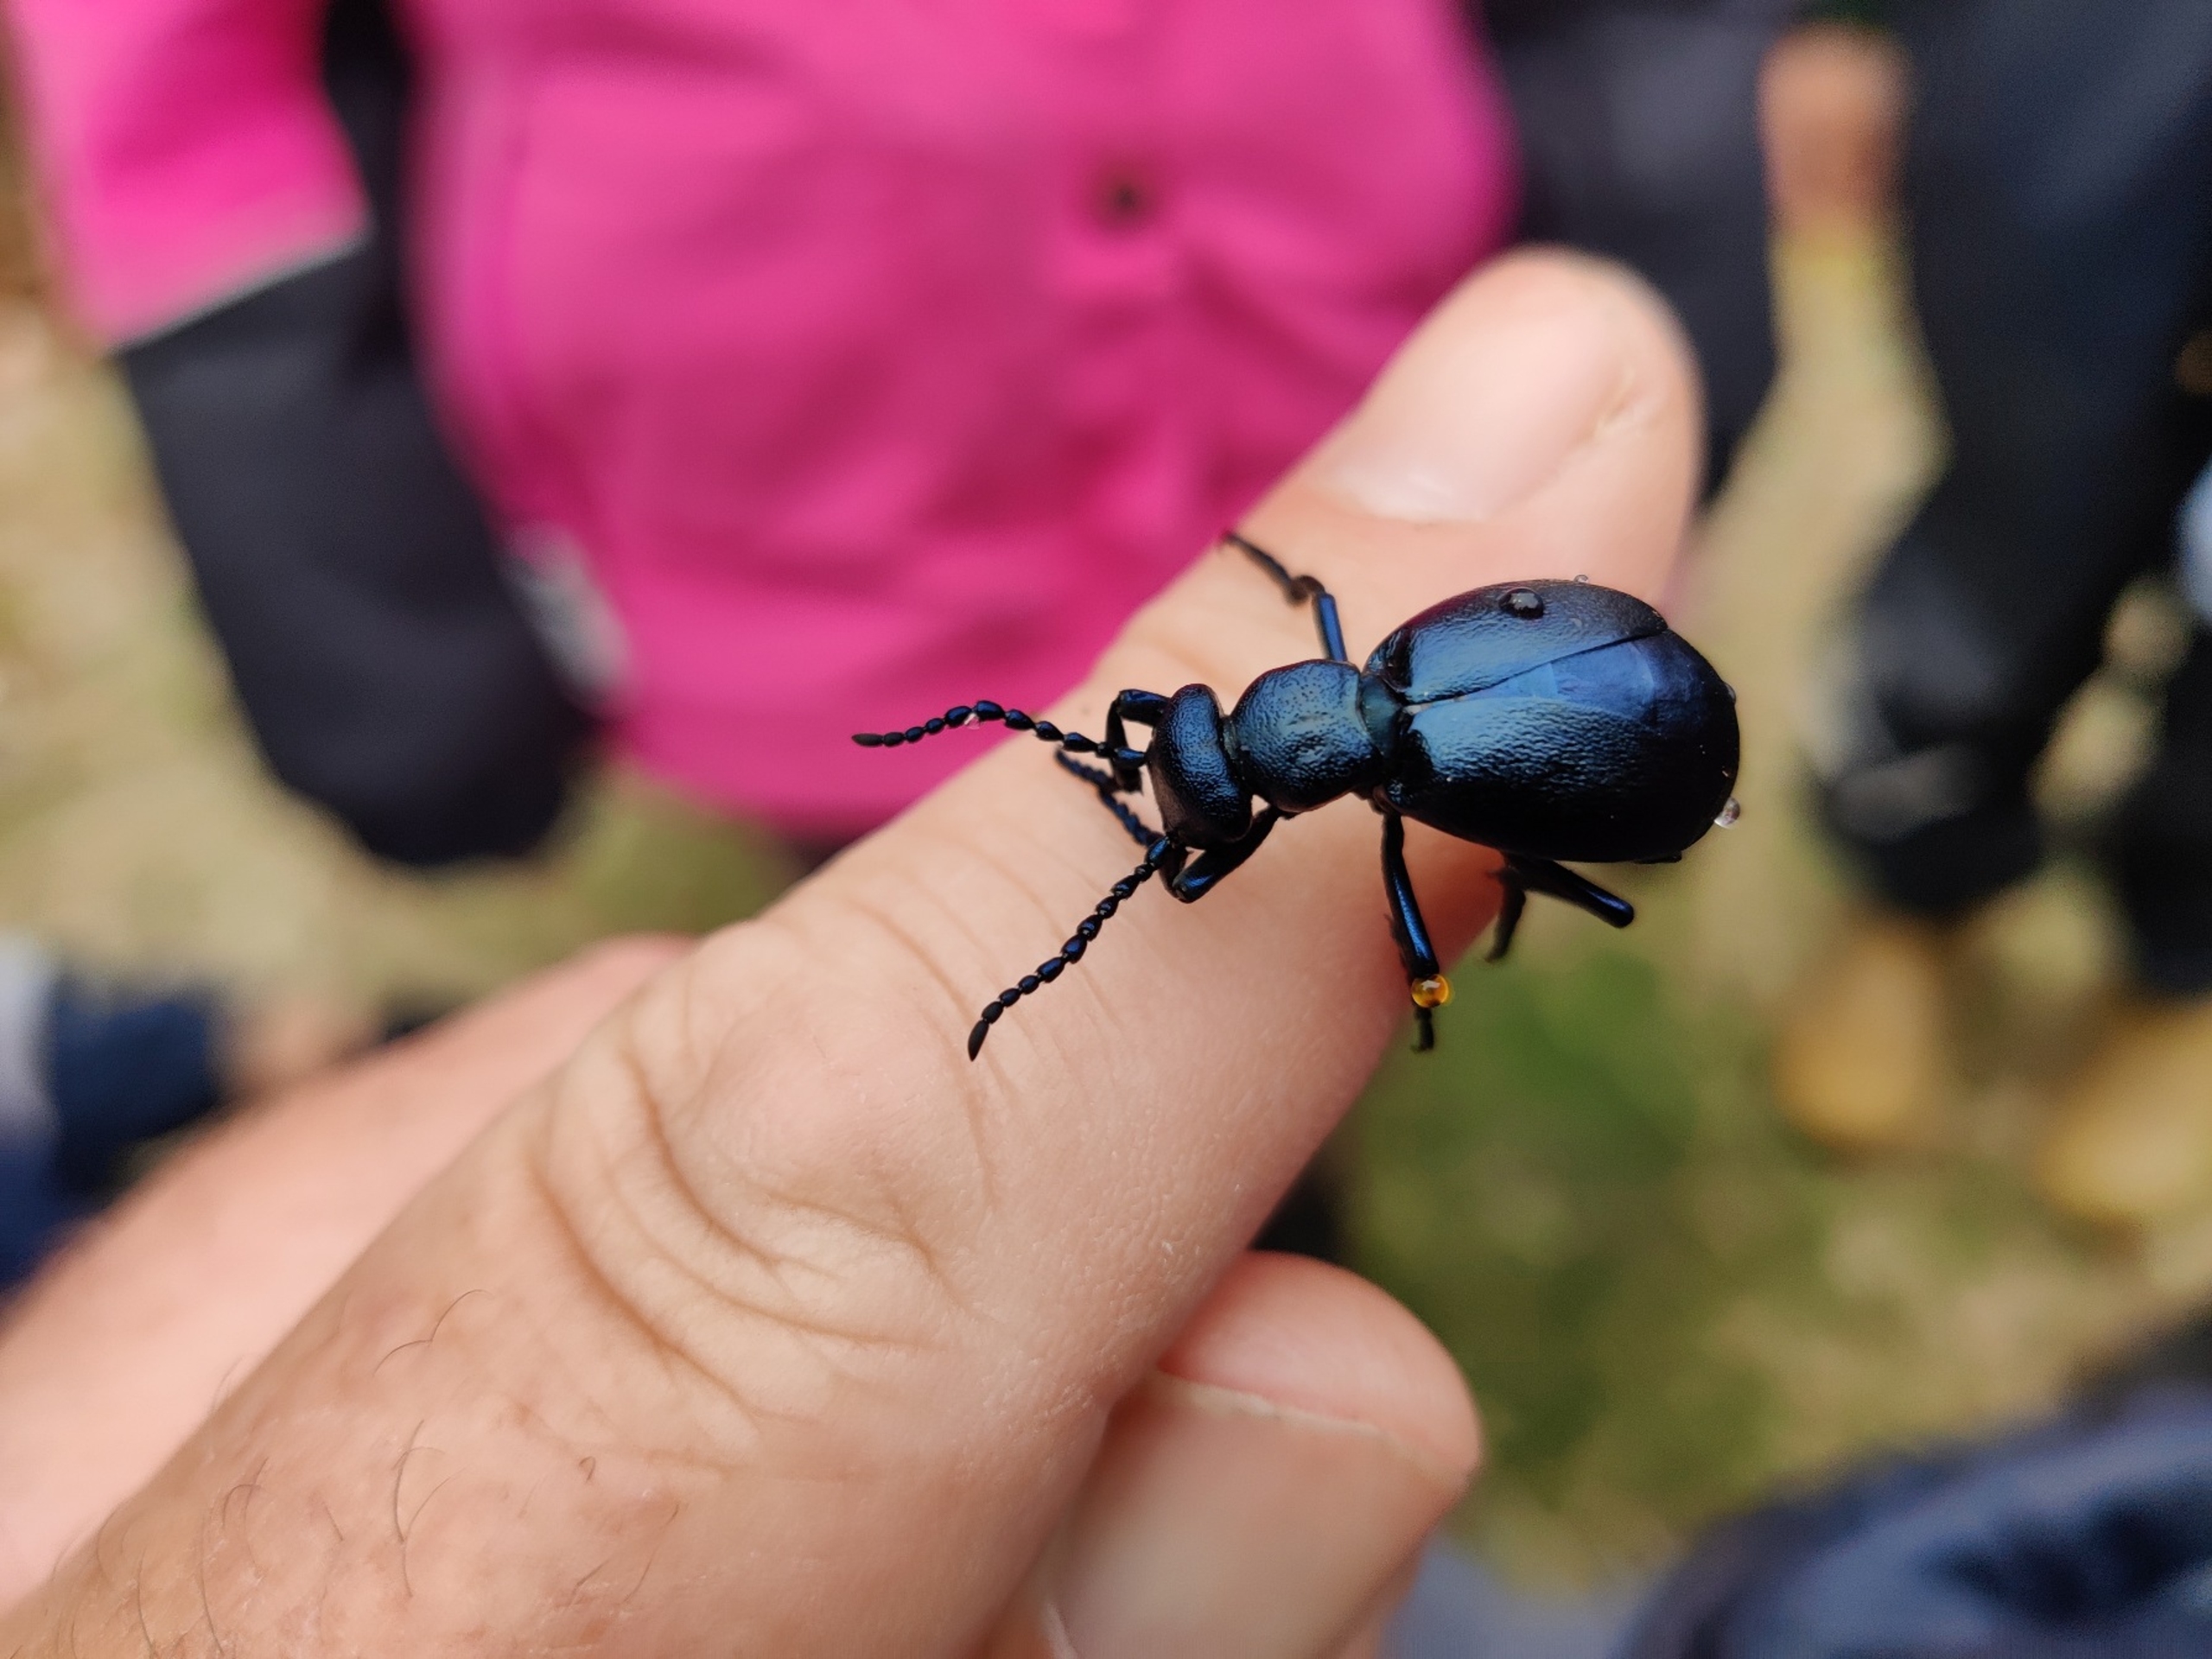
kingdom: Animalia
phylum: Arthropoda
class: Insecta
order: Coleoptera
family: Meloidae
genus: Meloe
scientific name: Meloe violaceus
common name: Blå oliebille
